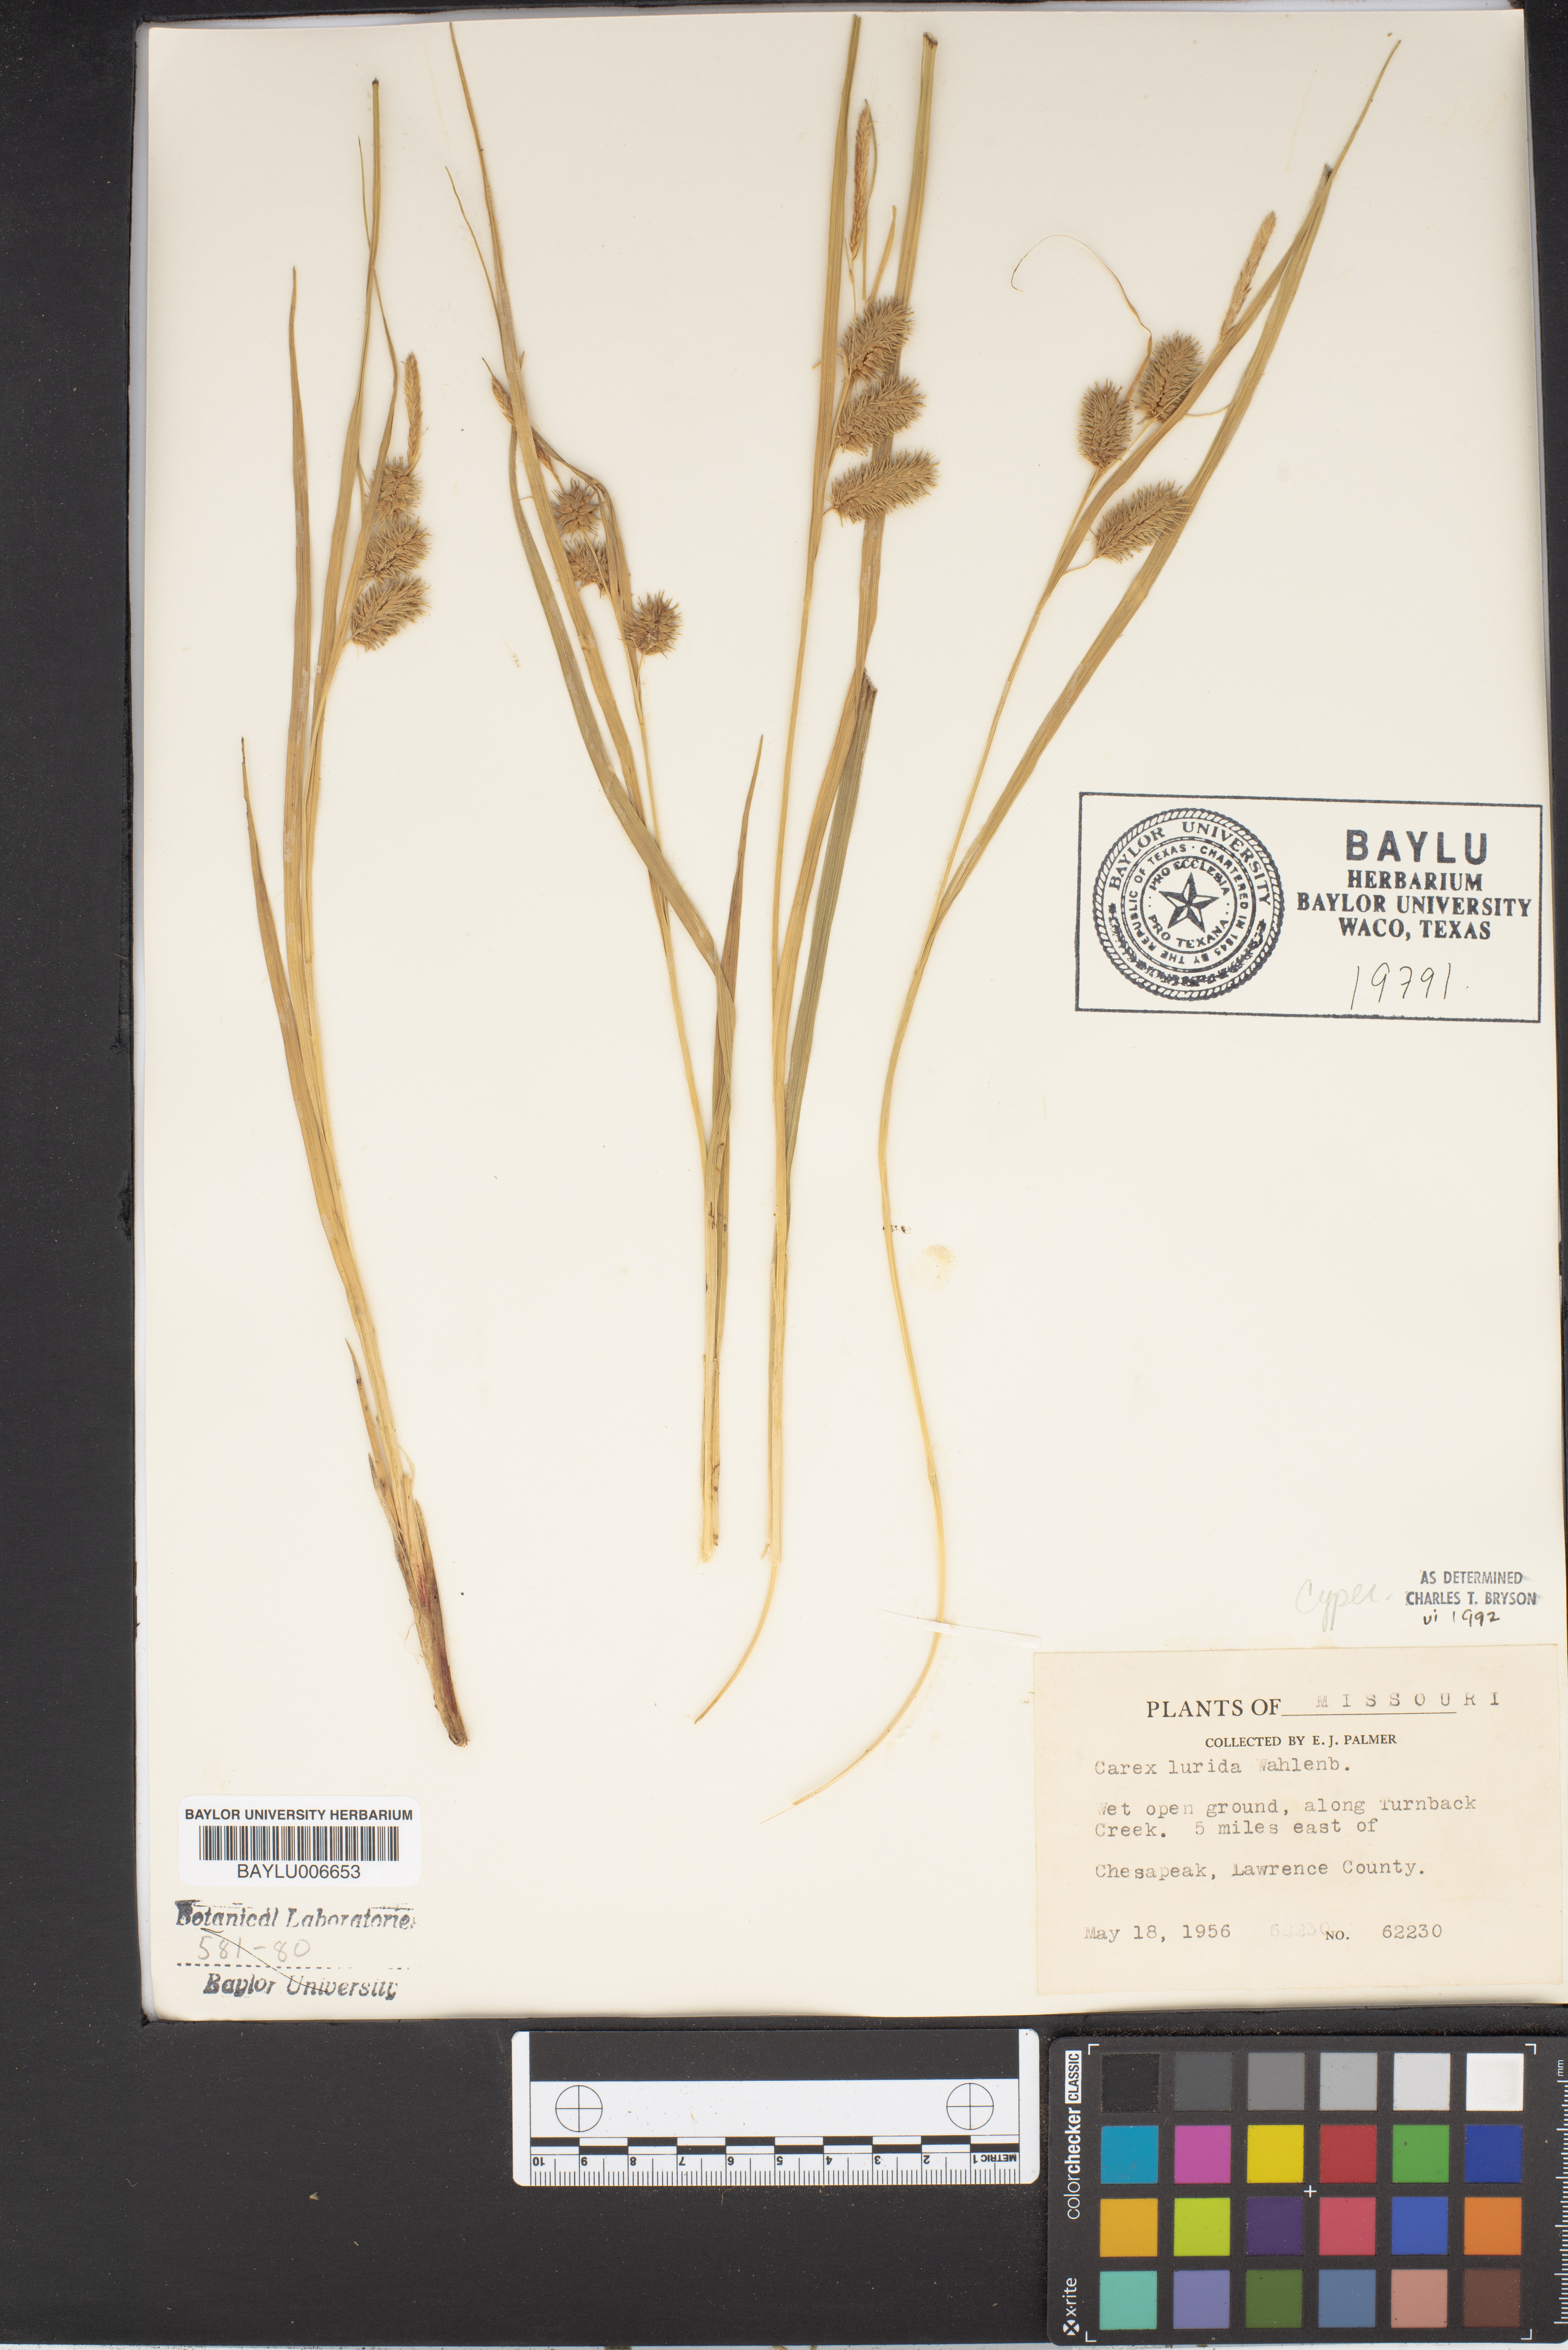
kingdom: Plantae
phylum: Tracheophyta
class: Liliopsida
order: Poales
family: Cyperaceae
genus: Carex
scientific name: Carex lurida
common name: Sallow sedge
